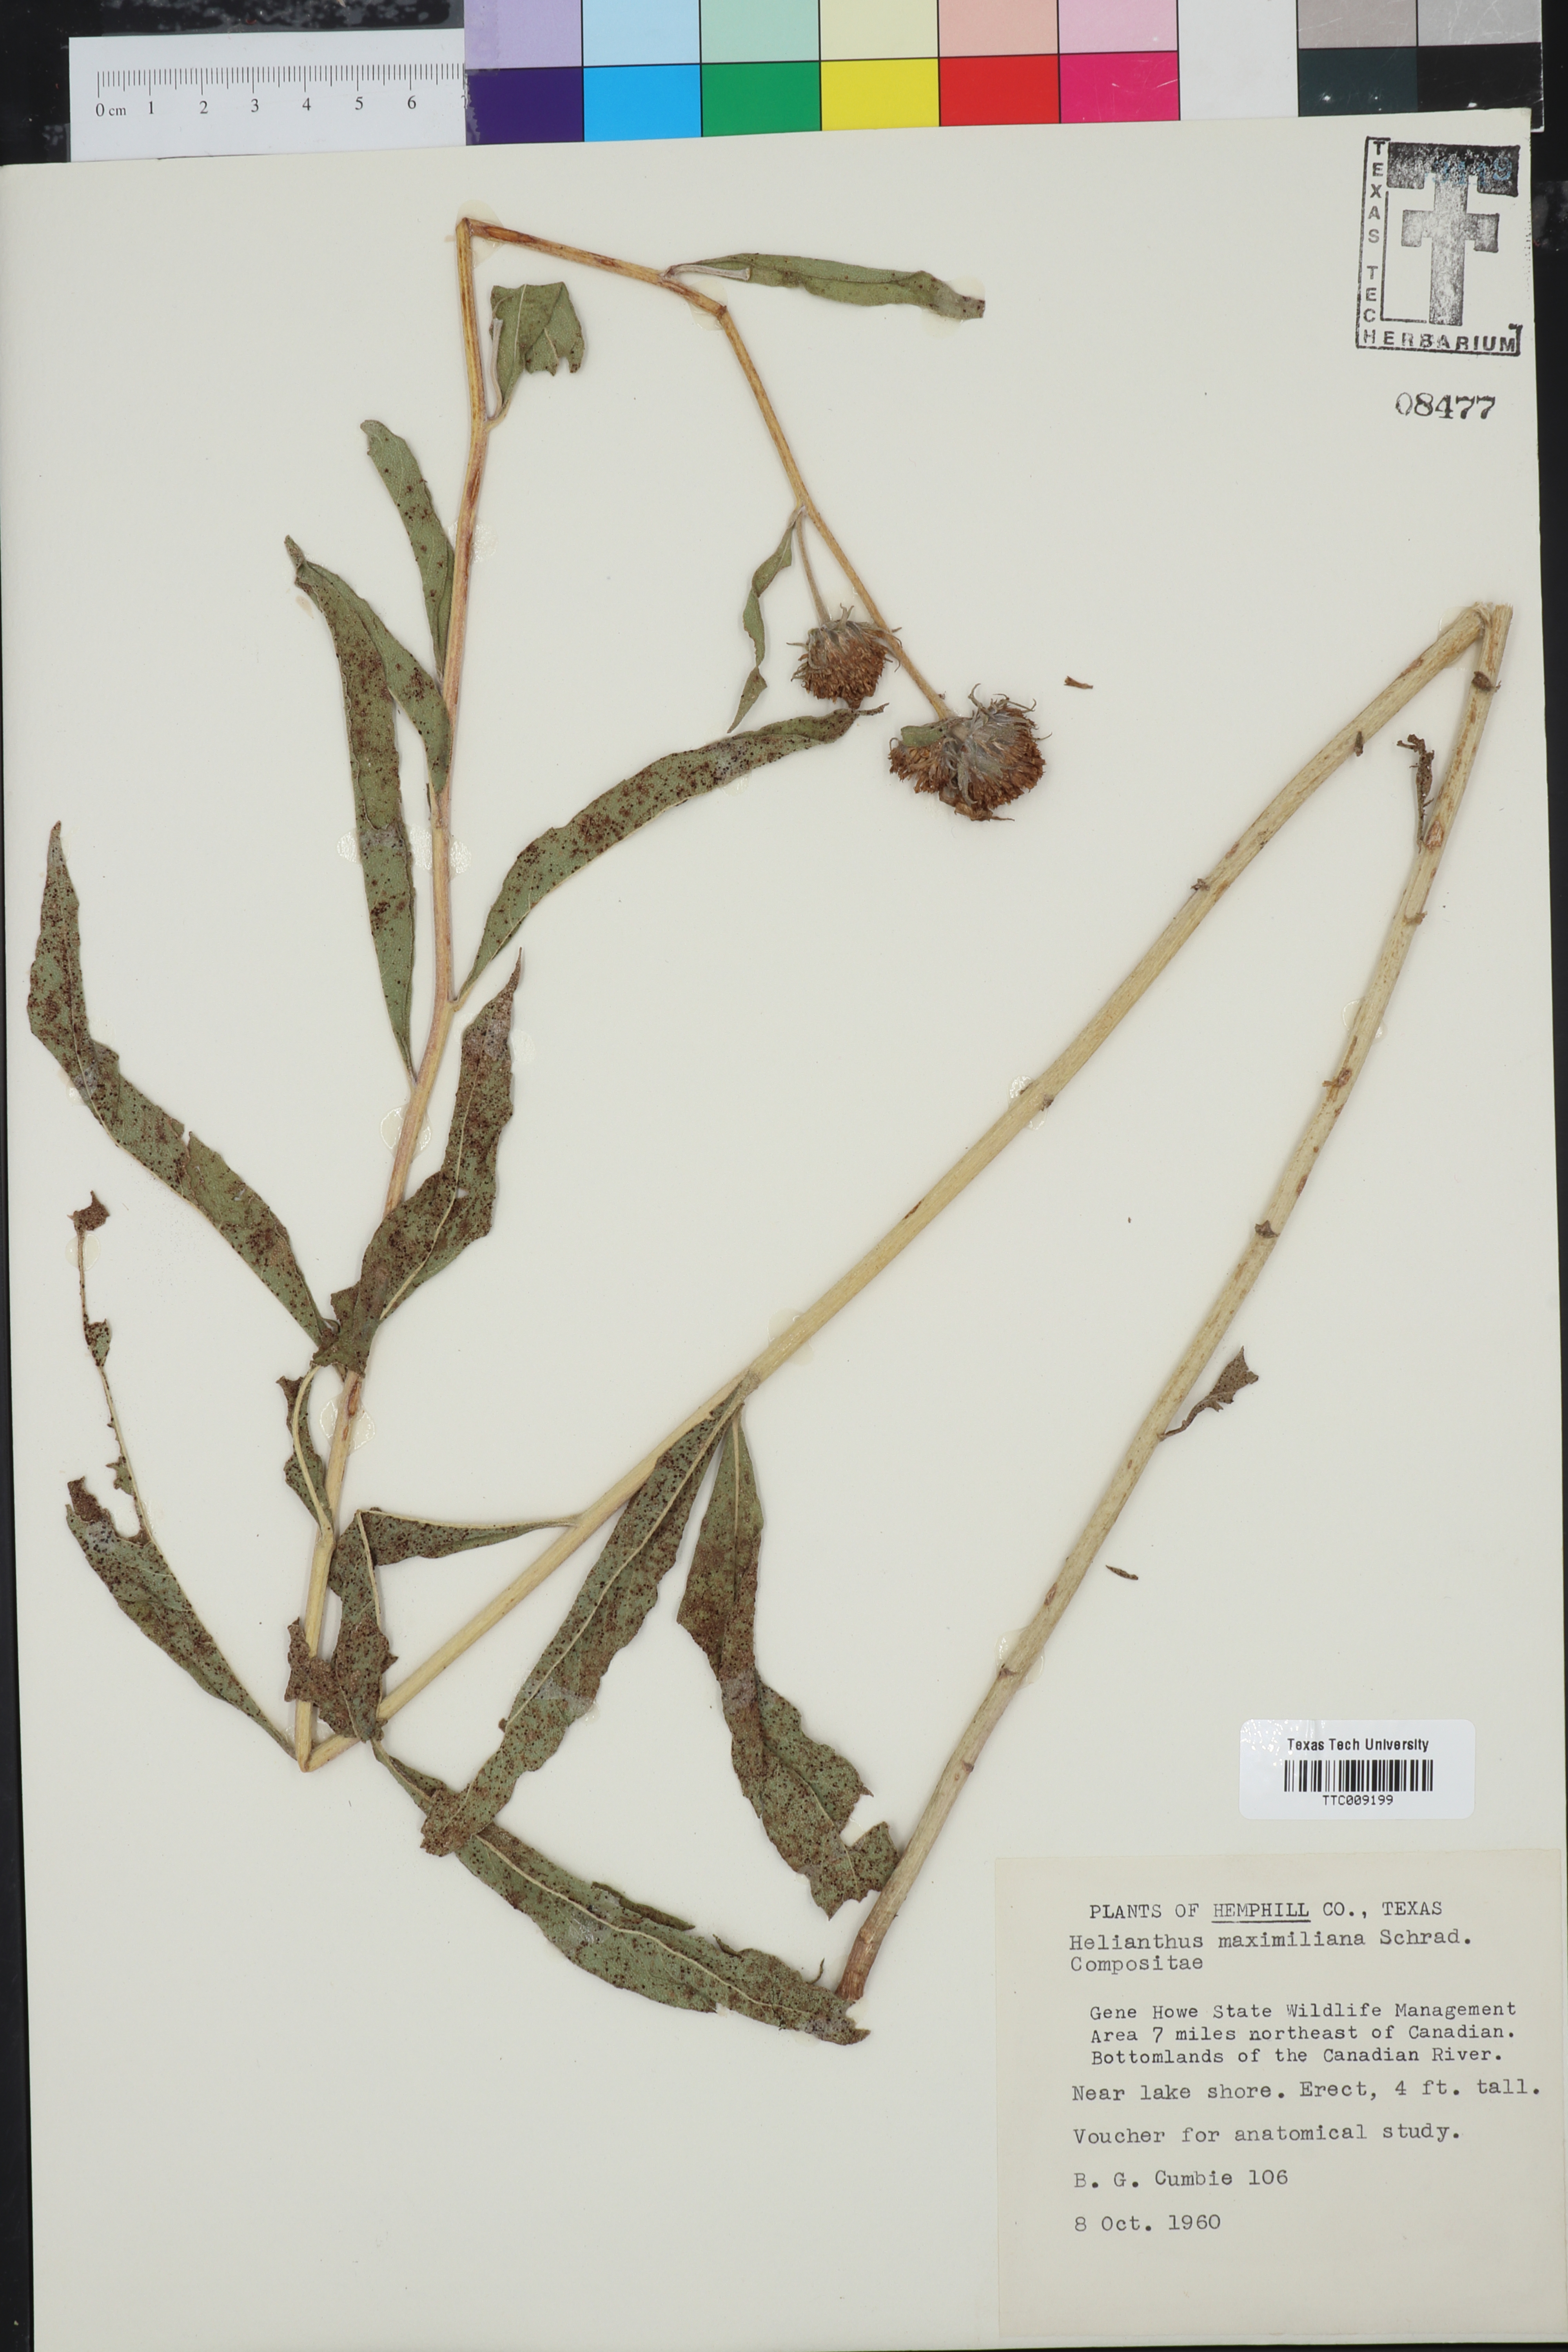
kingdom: Plantae
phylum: Tracheophyta
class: Magnoliopsida
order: Asterales
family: Asteraceae
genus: Helianthus
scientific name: Helianthus maximiliani
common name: Maximilian's sunflower
